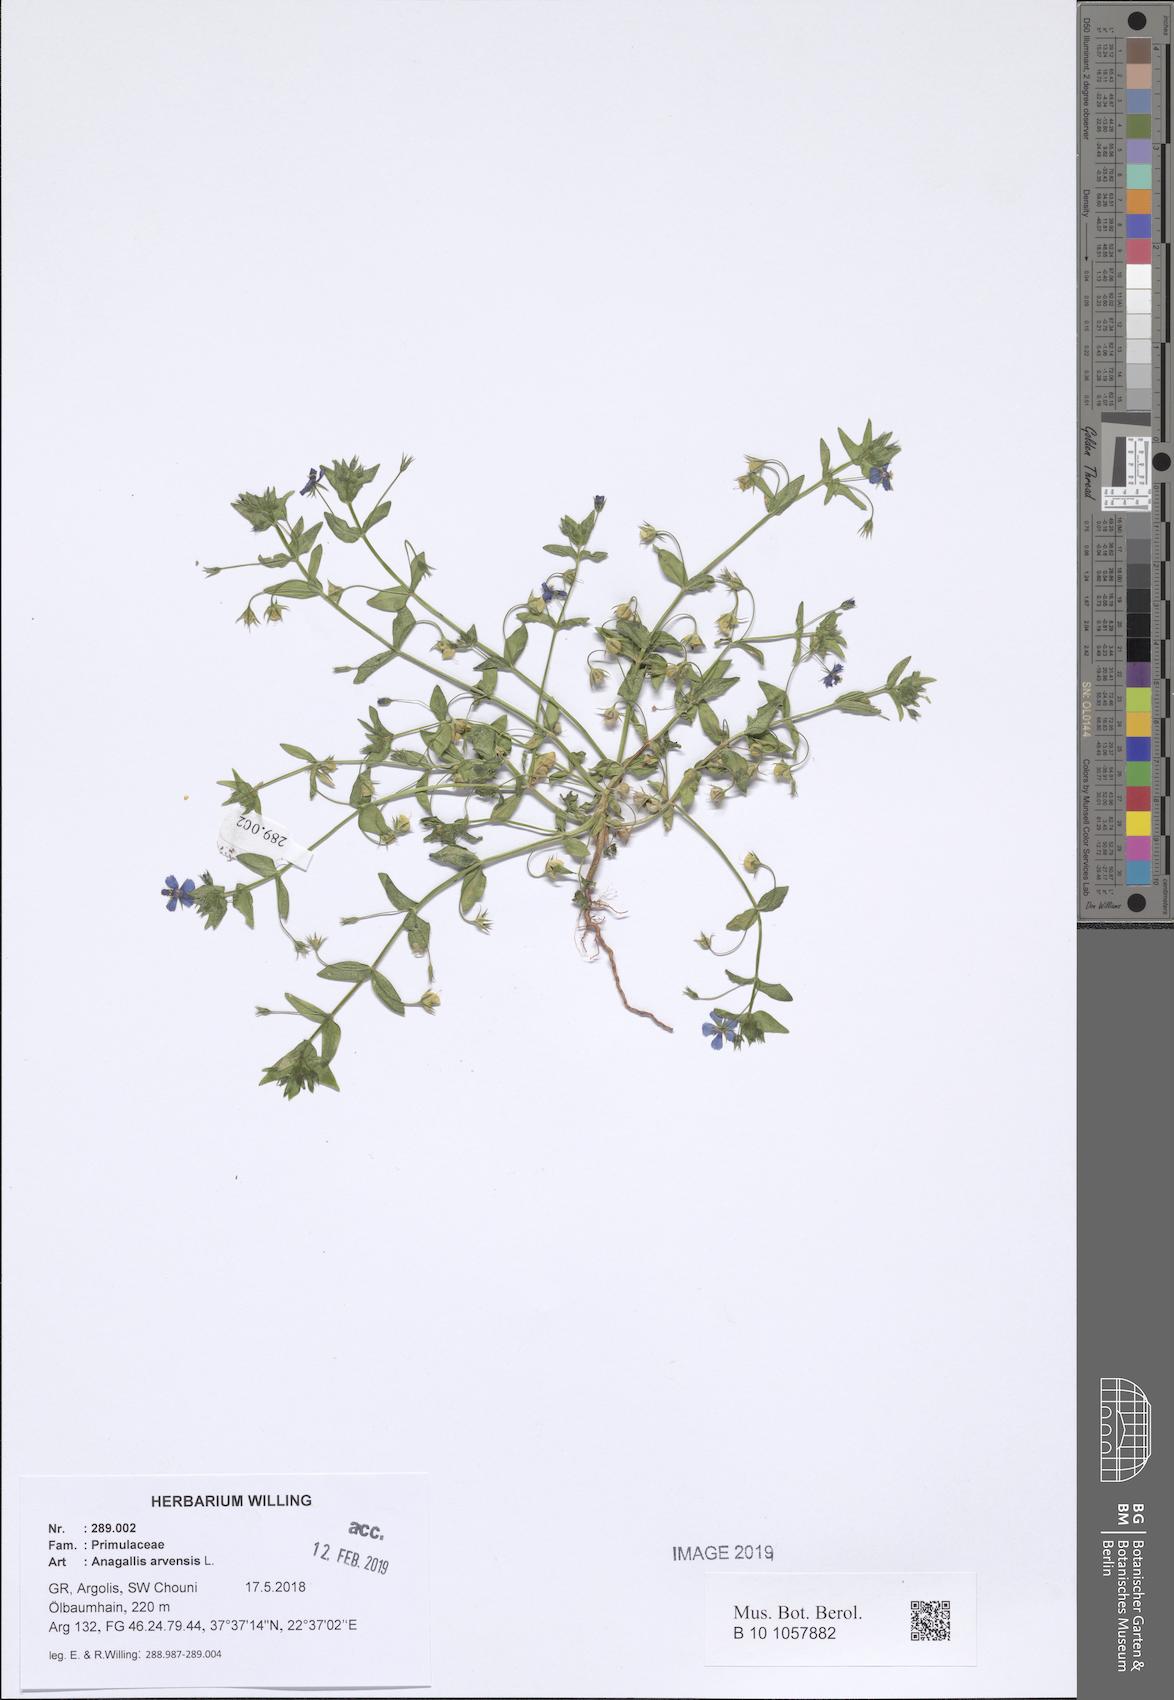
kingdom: Plantae
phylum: Tracheophyta
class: Magnoliopsida
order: Ericales
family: Primulaceae
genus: Lysimachia
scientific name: Lysimachia arvensis
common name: Scarlet pimpernel
